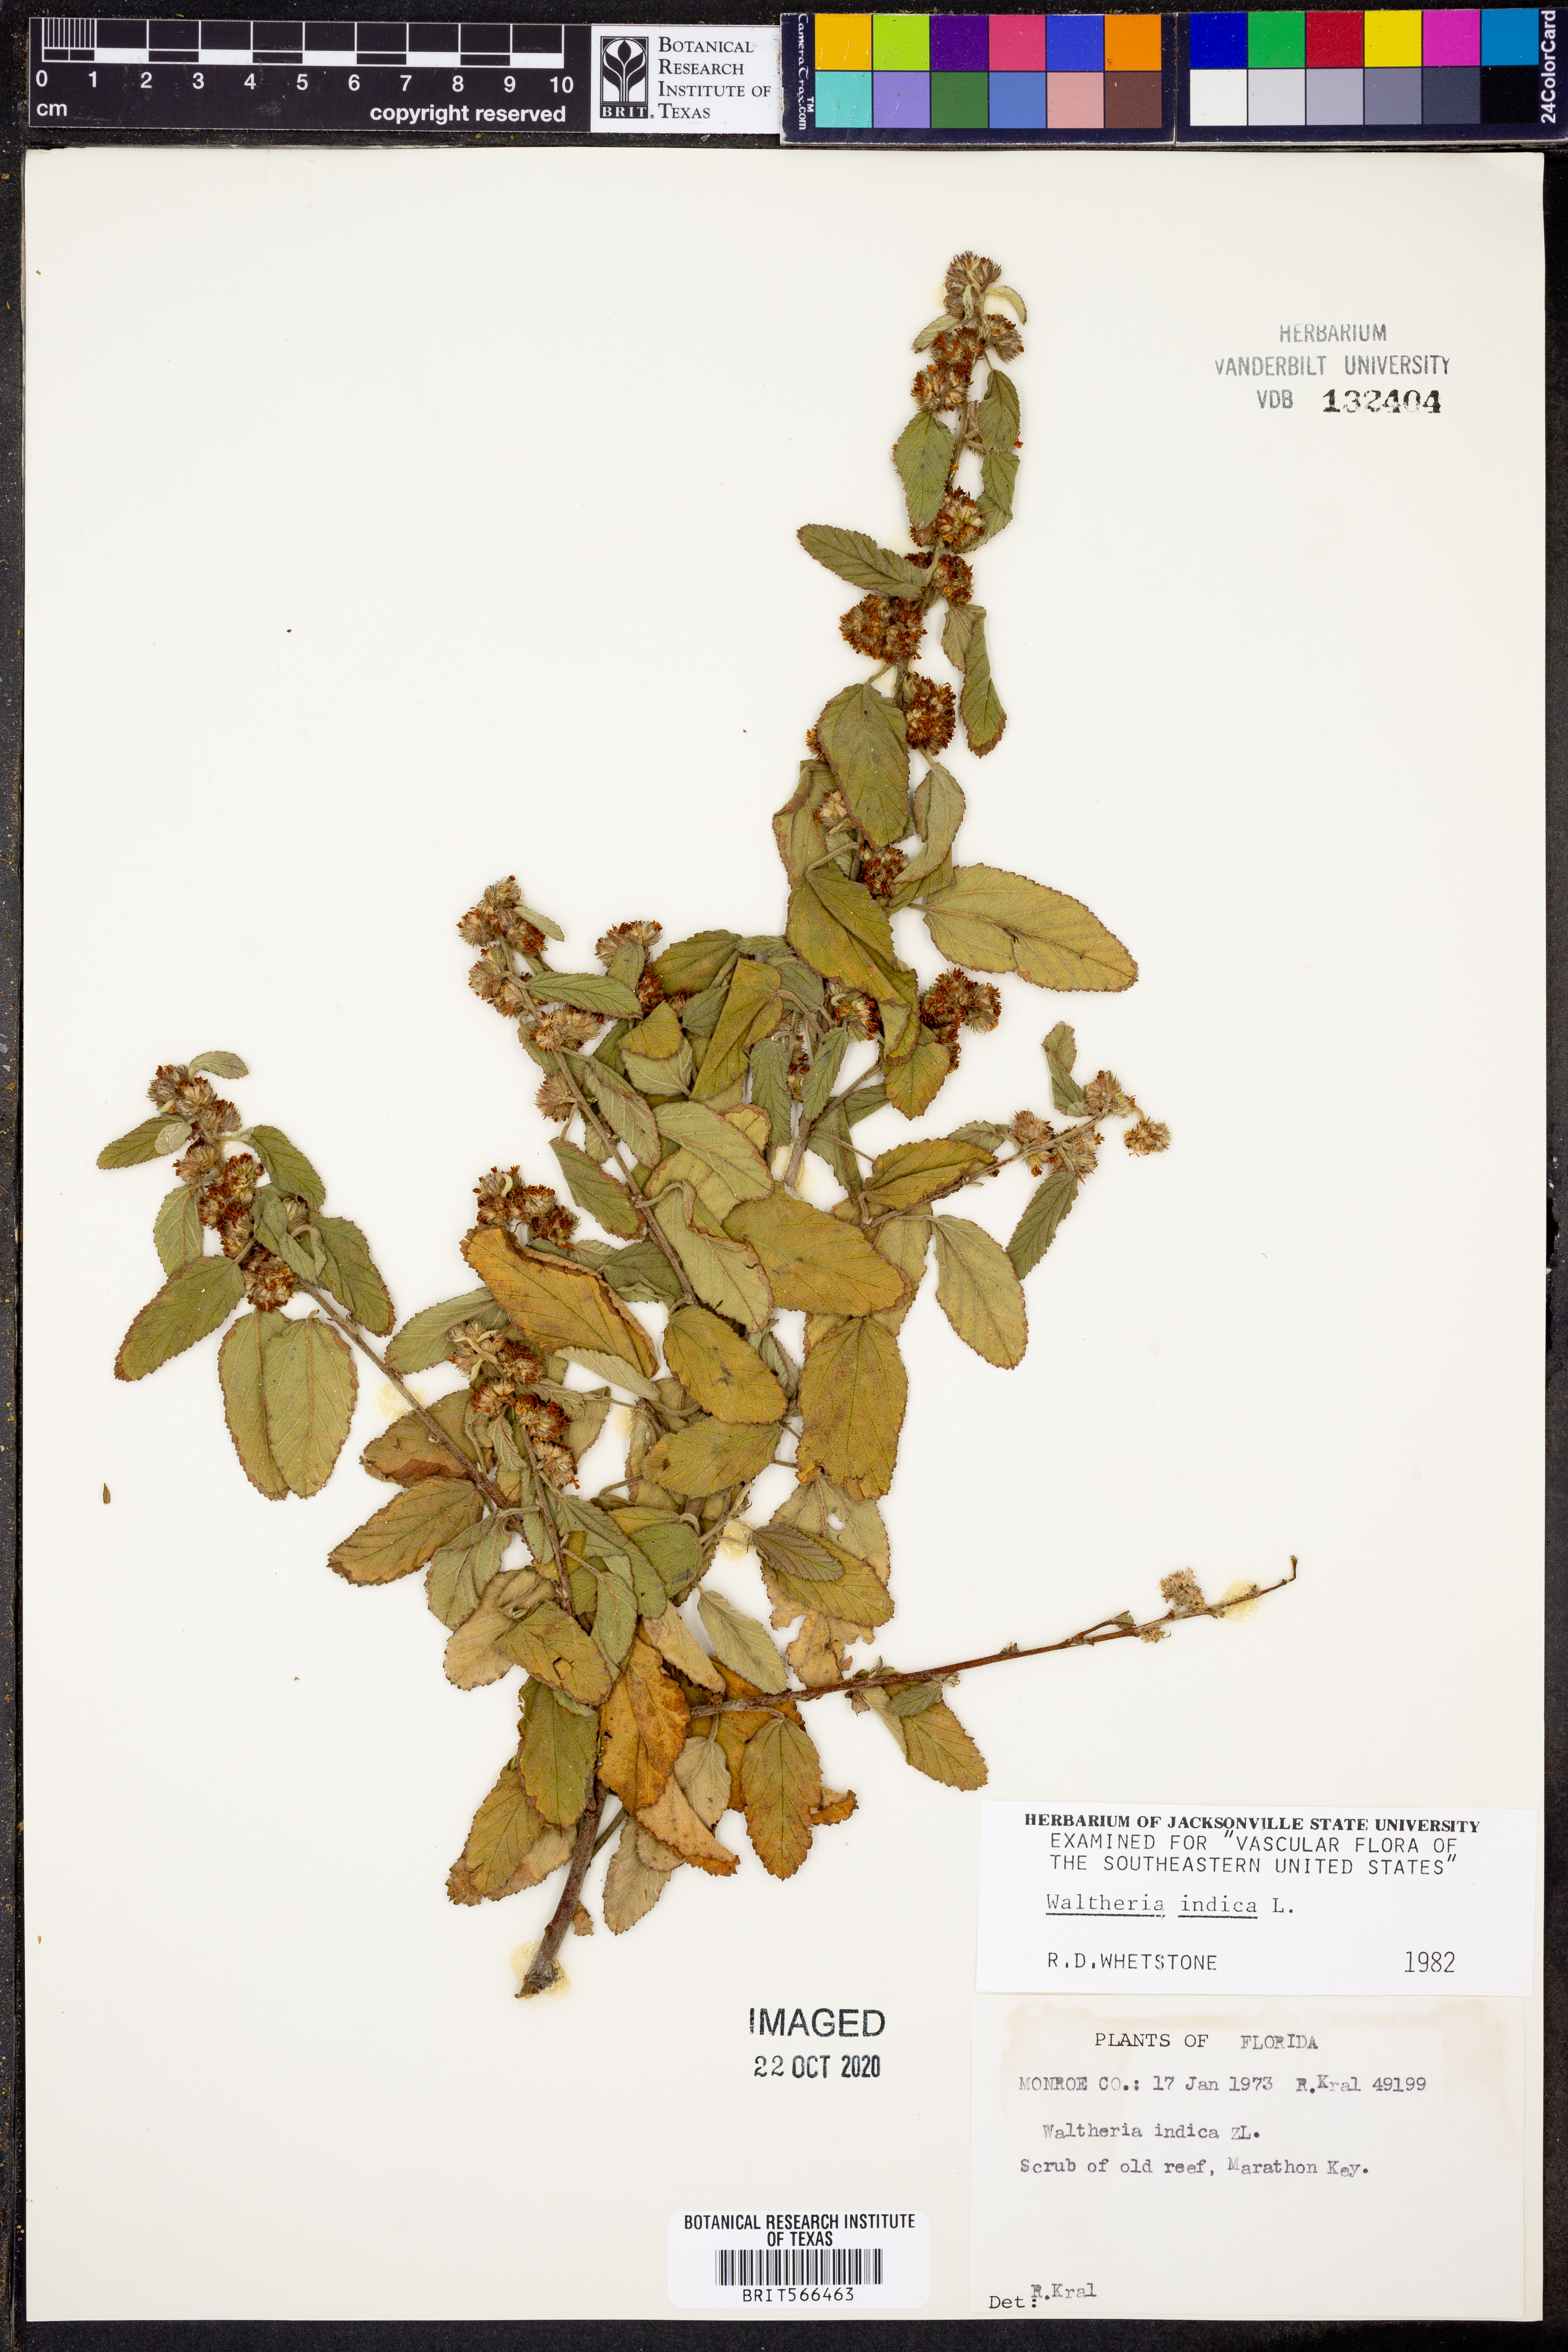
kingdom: Plantae
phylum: Tracheophyta
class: Magnoliopsida
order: Malvales
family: Malvaceae
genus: Waltheria
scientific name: Waltheria indica
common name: Leather-coat
